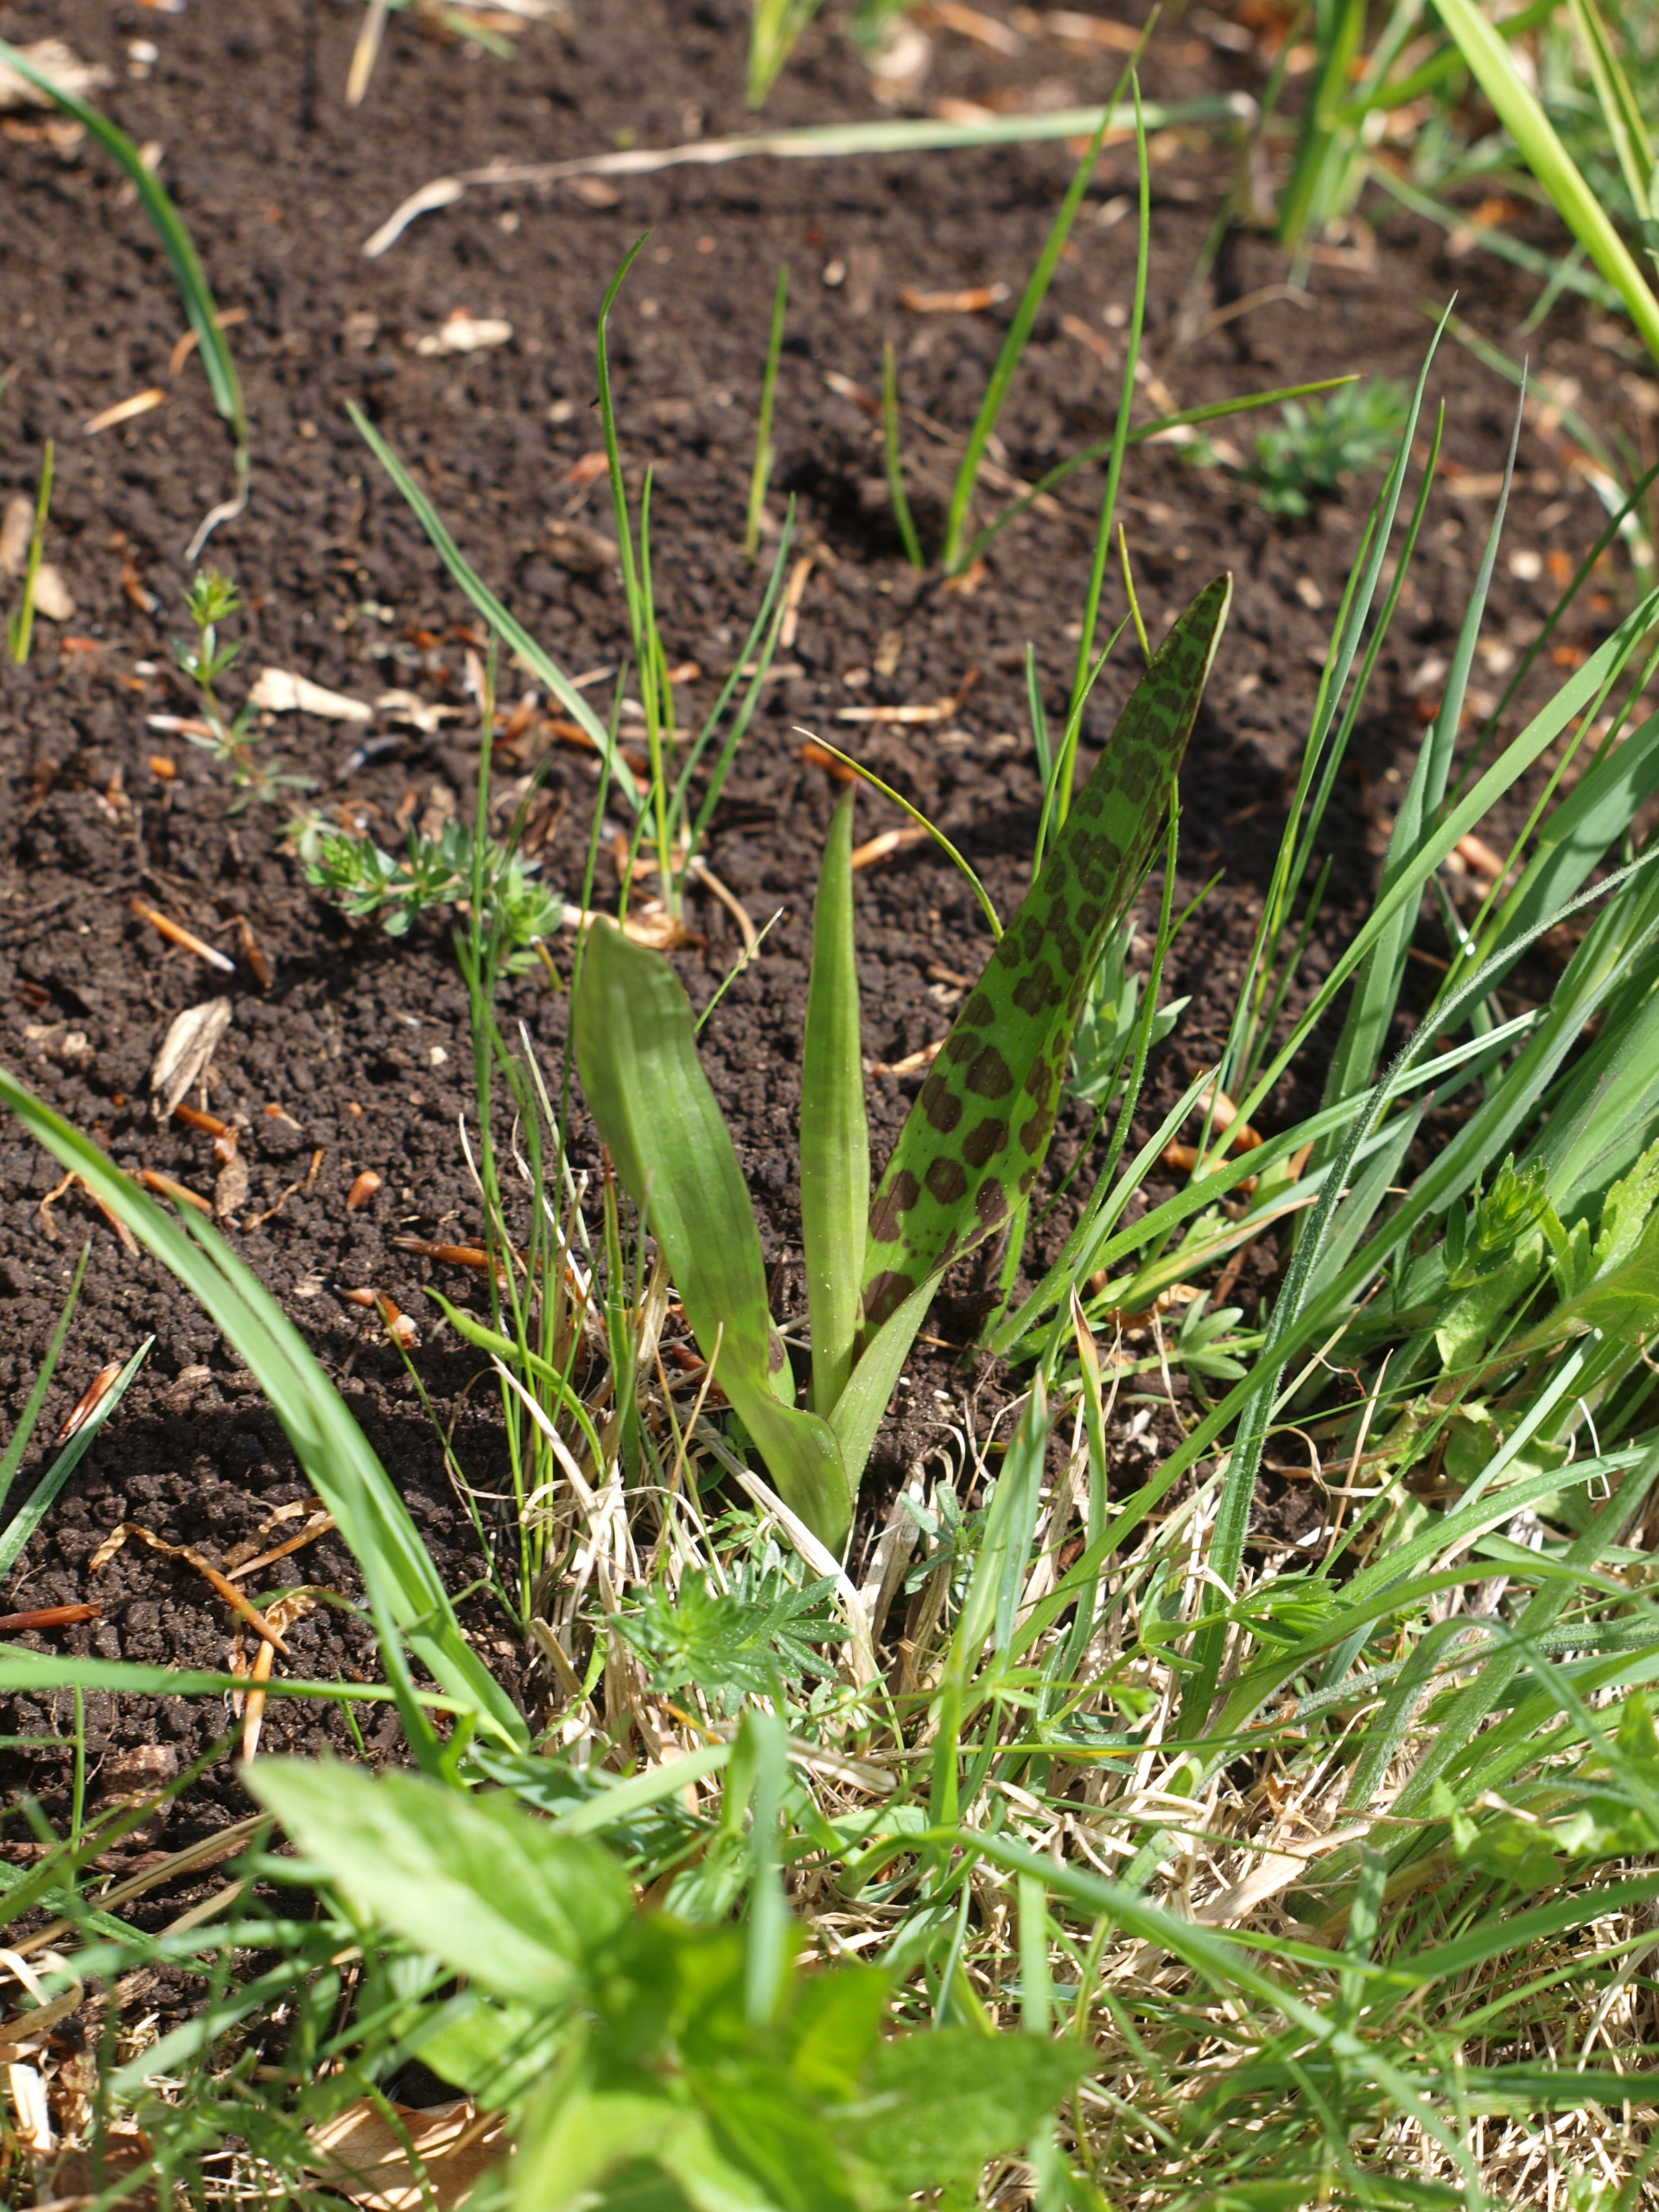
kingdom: Plantae
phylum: Tracheophyta
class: Liliopsida
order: Asparagales
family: Orchidaceae
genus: Dactylorhiza
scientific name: Dactylorhiza majalis
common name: Maj-gøgeurt
